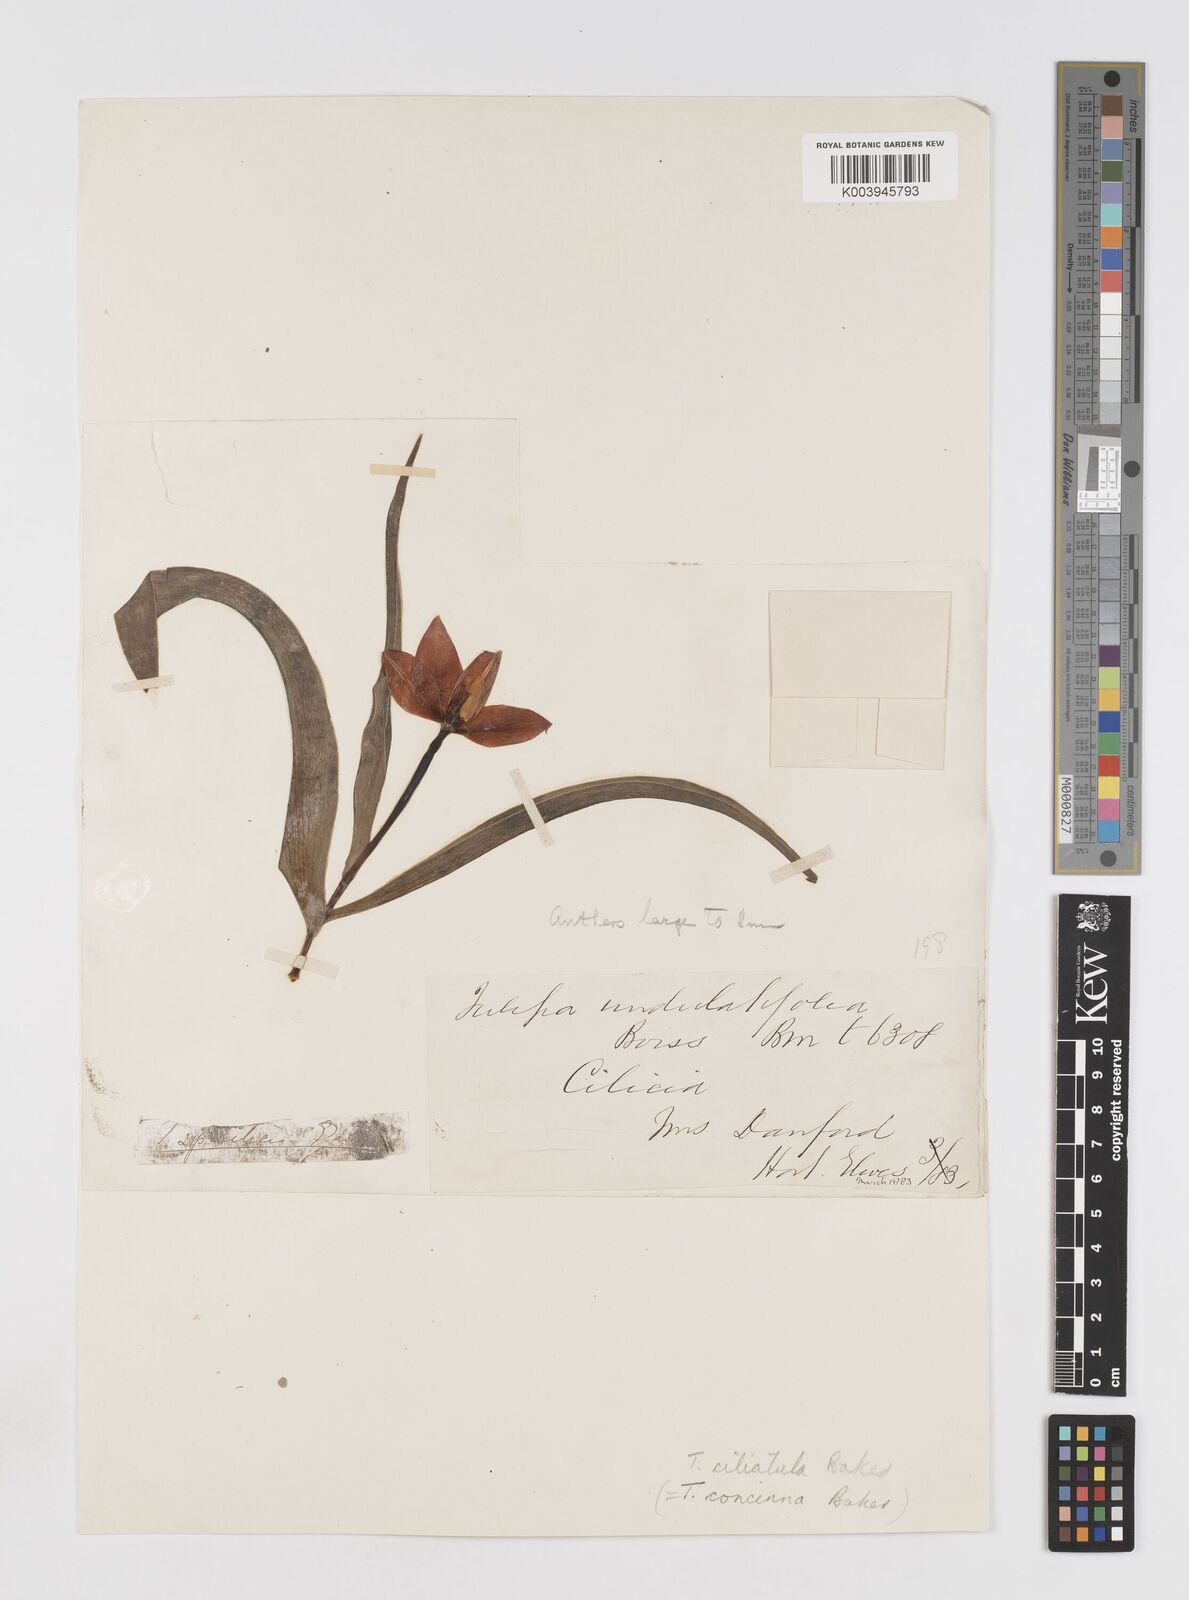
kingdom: Plantae
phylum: Tracheophyta
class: Liliopsida
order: Liliales
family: Liliaceae
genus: Tulipa
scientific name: Tulipa foliosa
